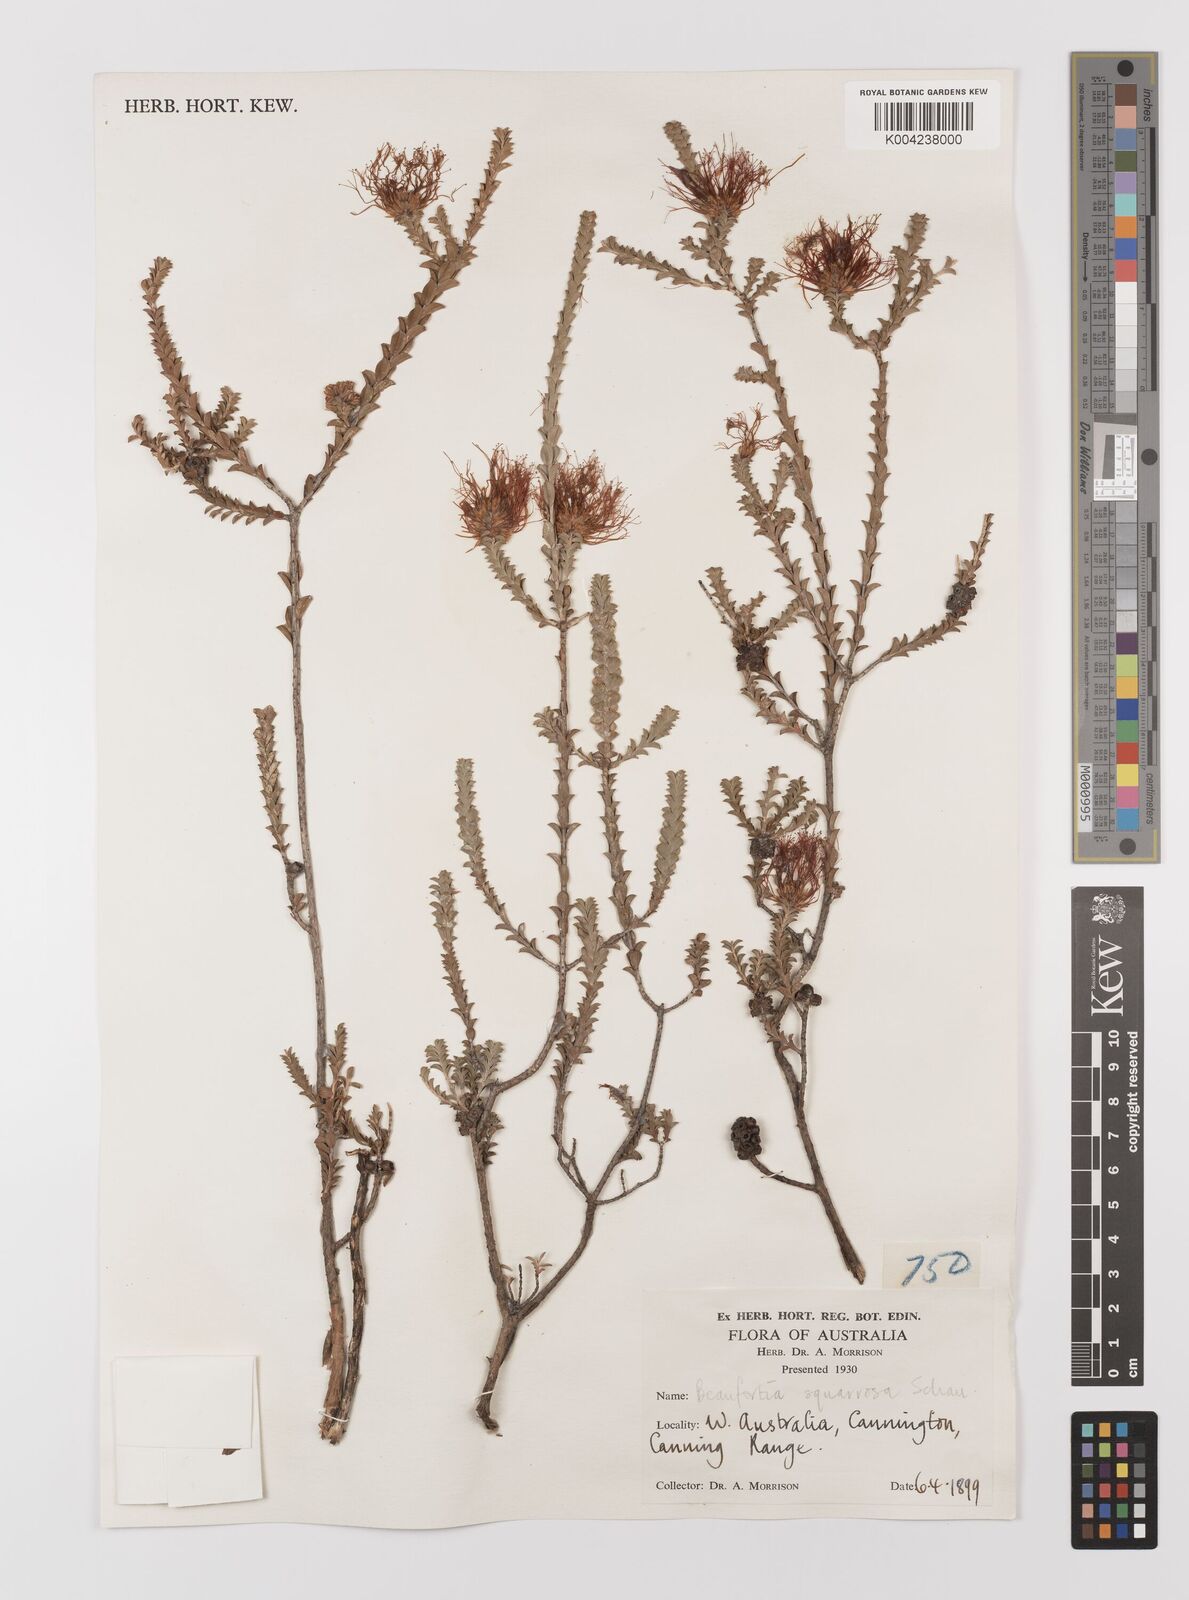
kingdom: Plantae
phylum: Tracheophyta
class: Magnoliopsida
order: Myrtales
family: Myrtaceae
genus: Melaleuca
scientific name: Melaleuca pulcherrima
